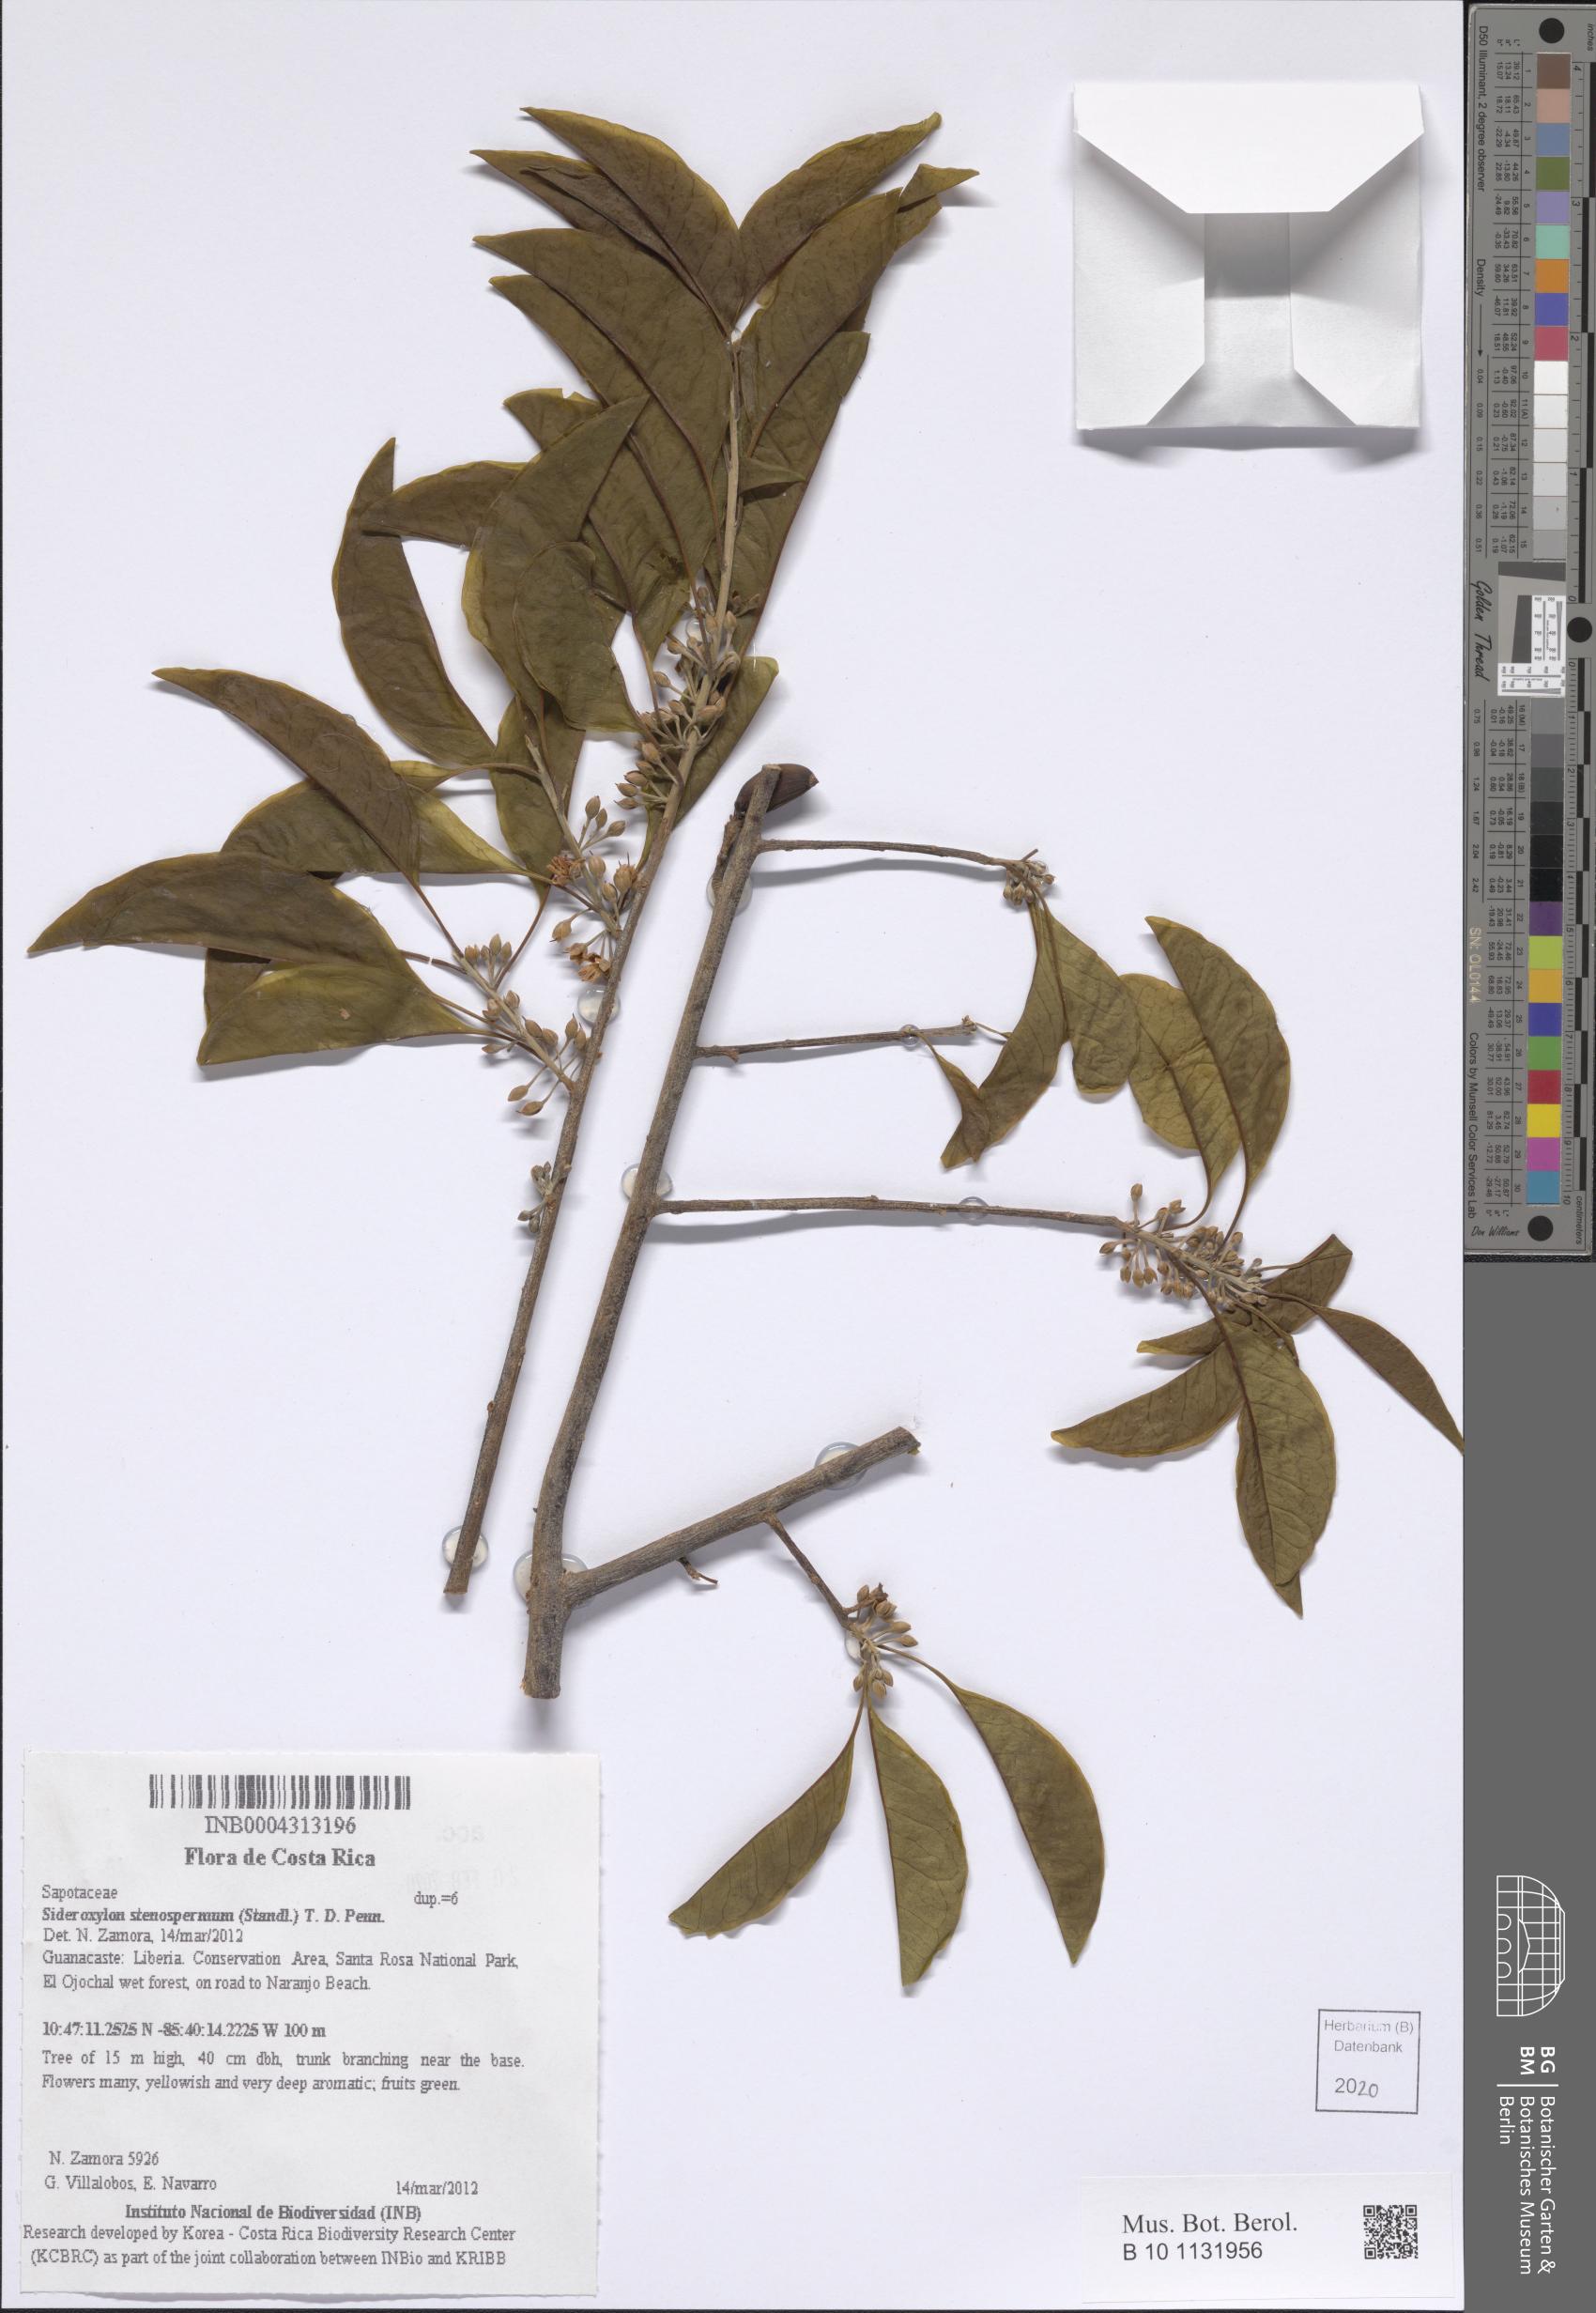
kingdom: Plantae
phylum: Tracheophyta
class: Magnoliopsida
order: Ericales
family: Sapotaceae
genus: Sideroxylon
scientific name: Sideroxylon stenospermum
